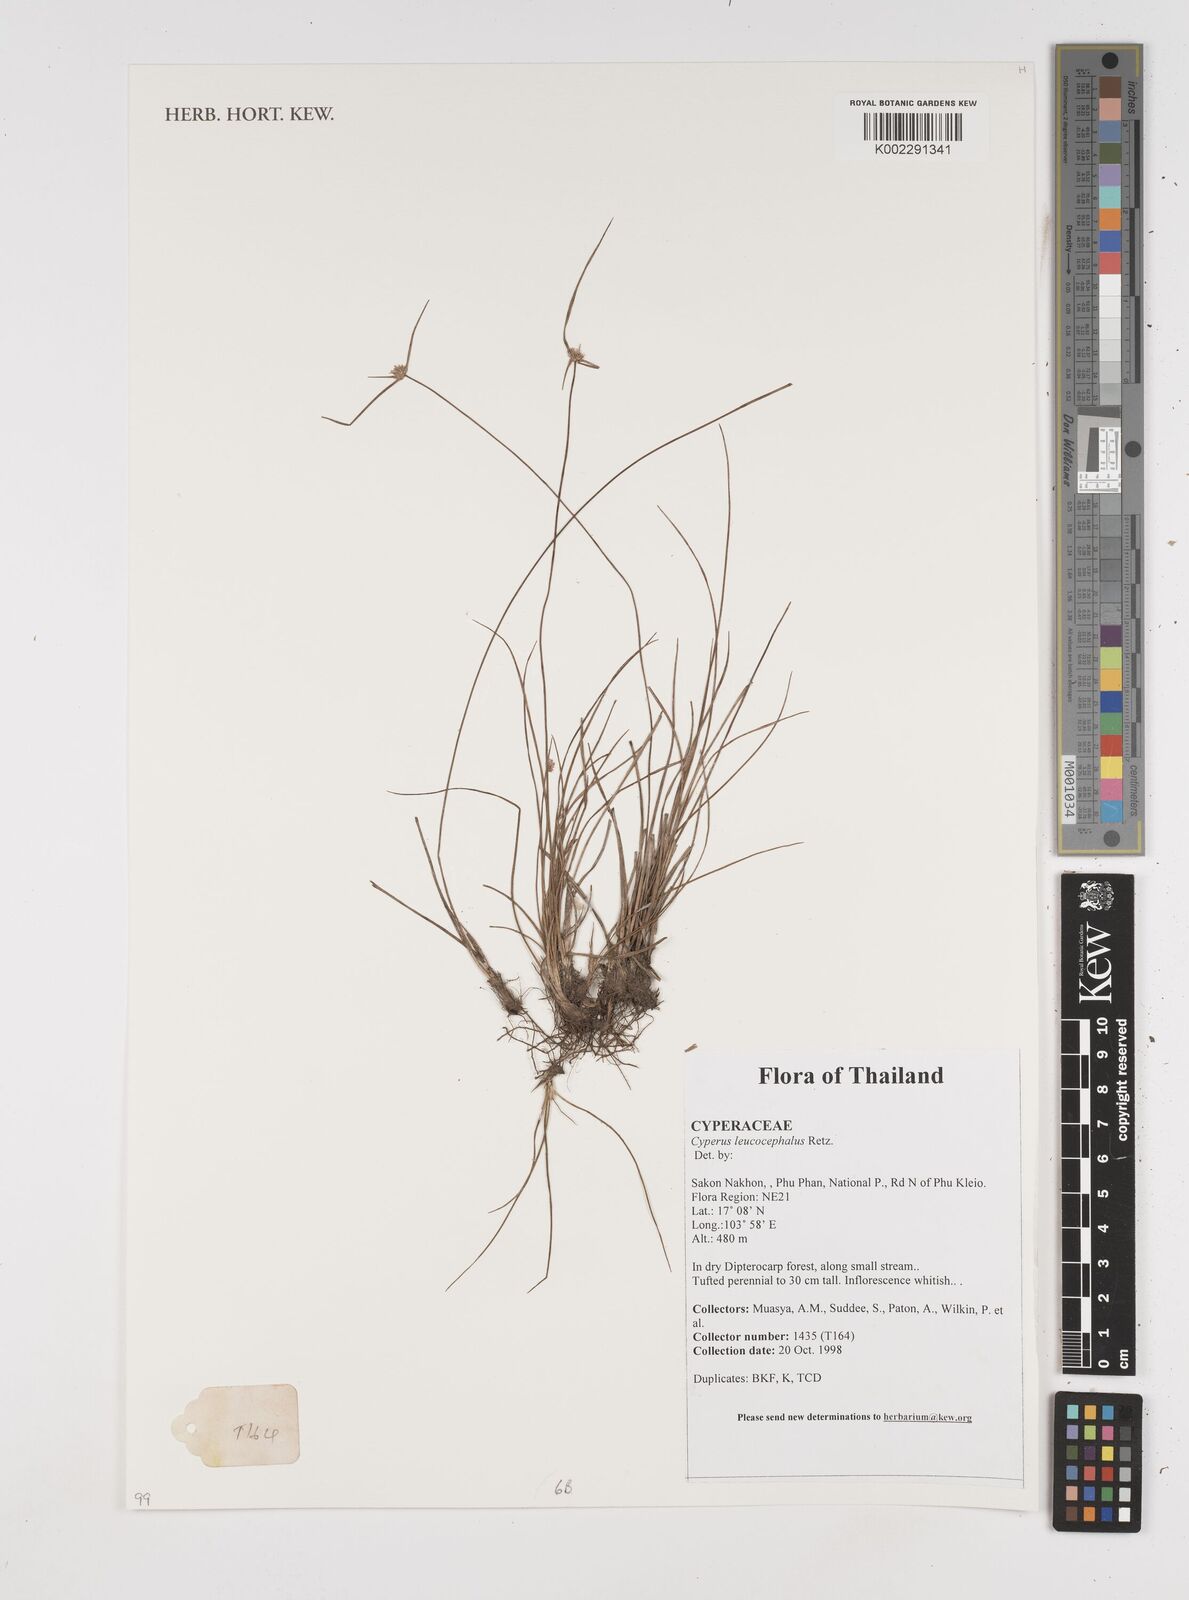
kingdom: Plantae
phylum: Tracheophyta
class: Liliopsida
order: Poales
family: Cyperaceae
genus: Cyperus
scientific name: Cyperus leucocephalus
